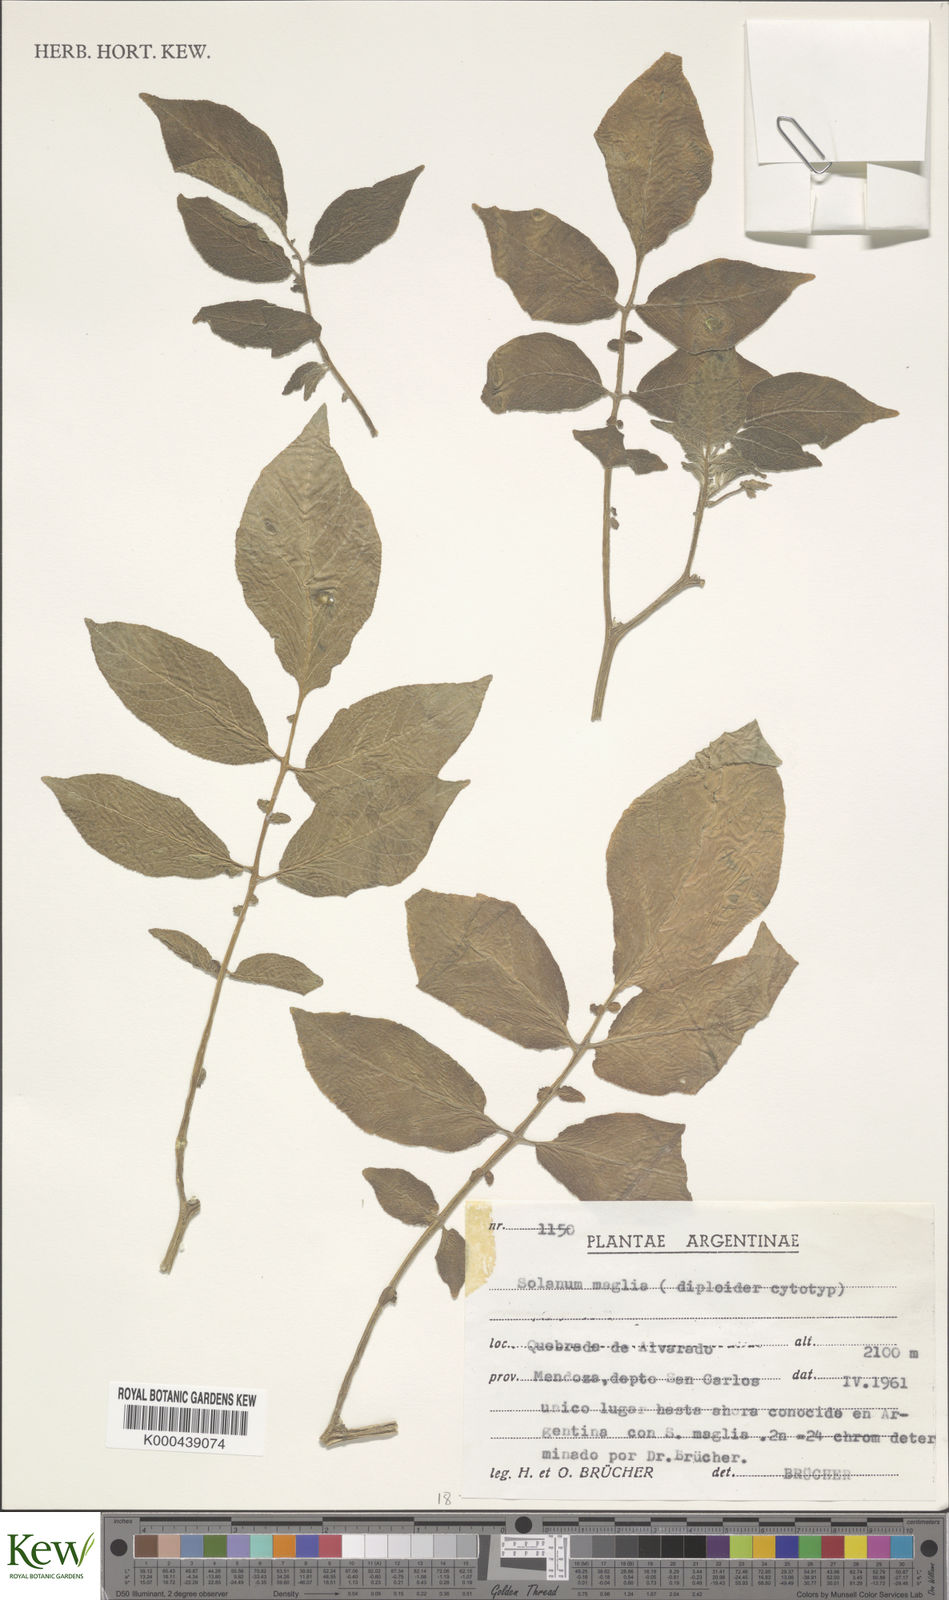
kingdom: Plantae
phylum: Tracheophyta
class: Magnoliopsida
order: Solanales
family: Solanaceae
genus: Solanum
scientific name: Solanum maglia
